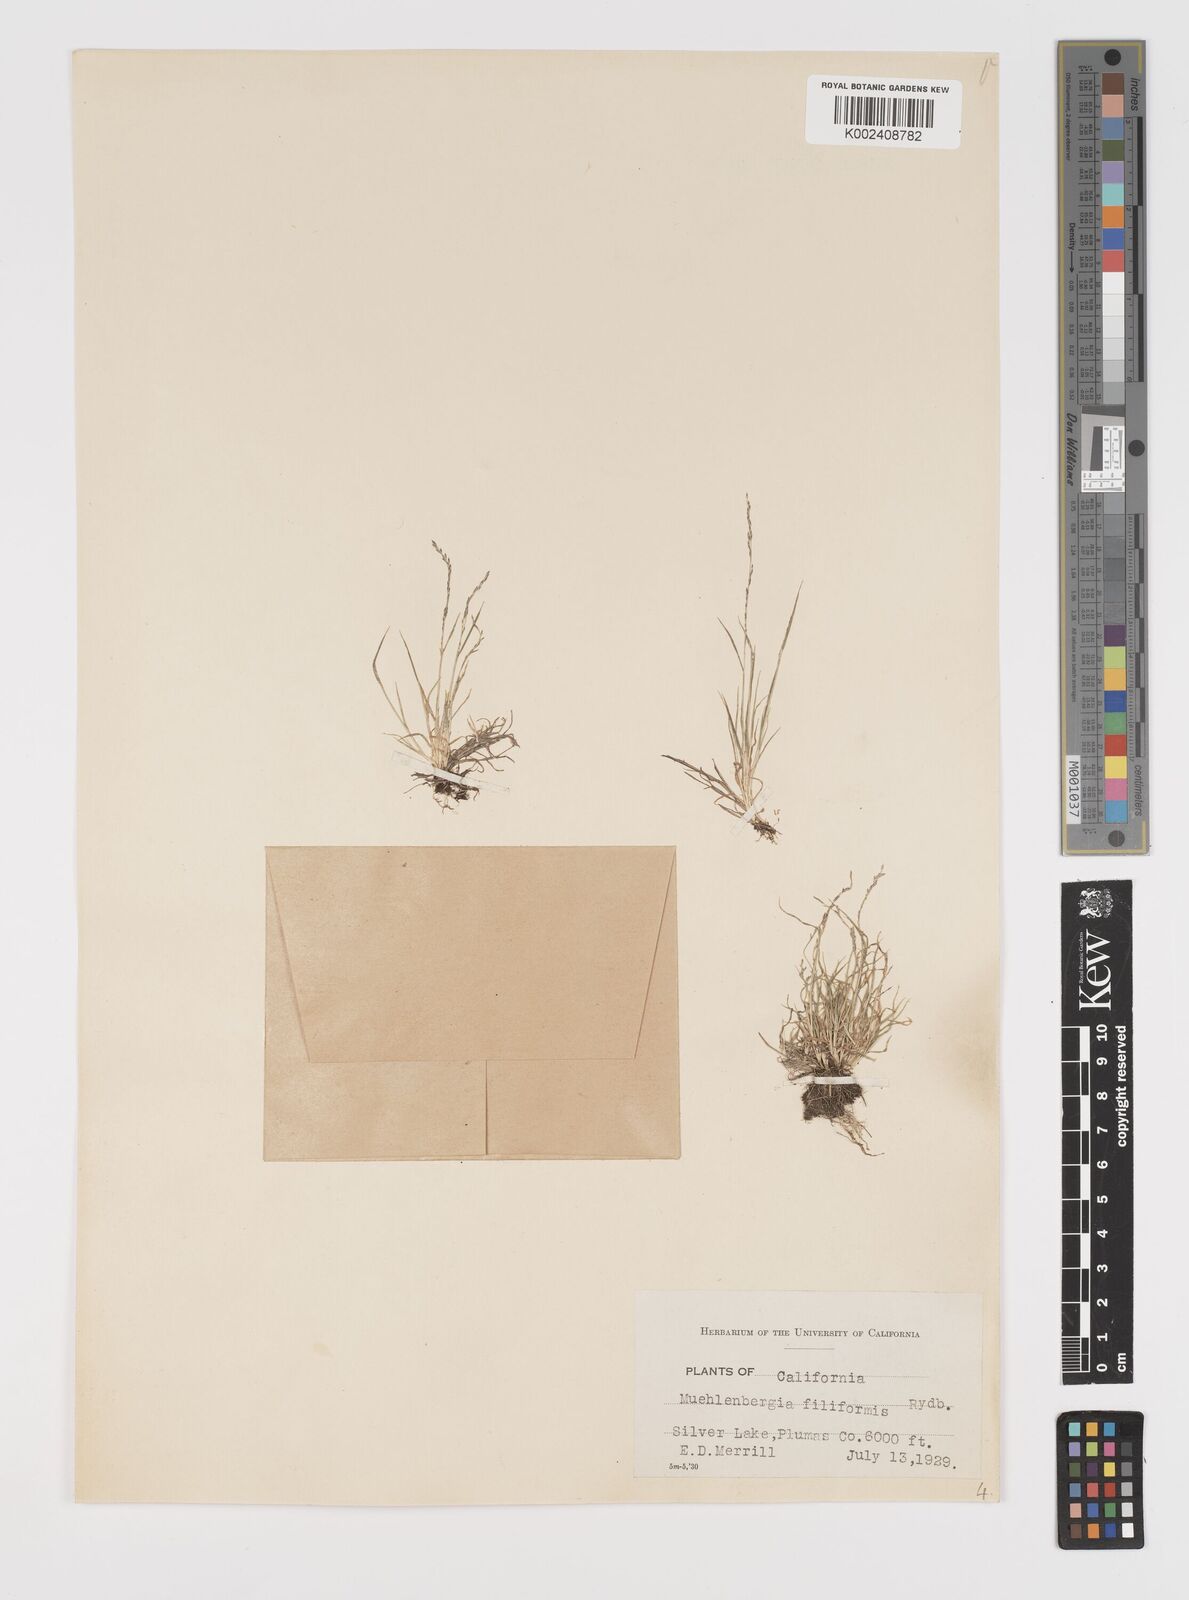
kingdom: Plantae
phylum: Tracheophyta
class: Liliopsida
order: Poales
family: Poaceae
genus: Leptochloa
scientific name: Leptochloa mucronata
